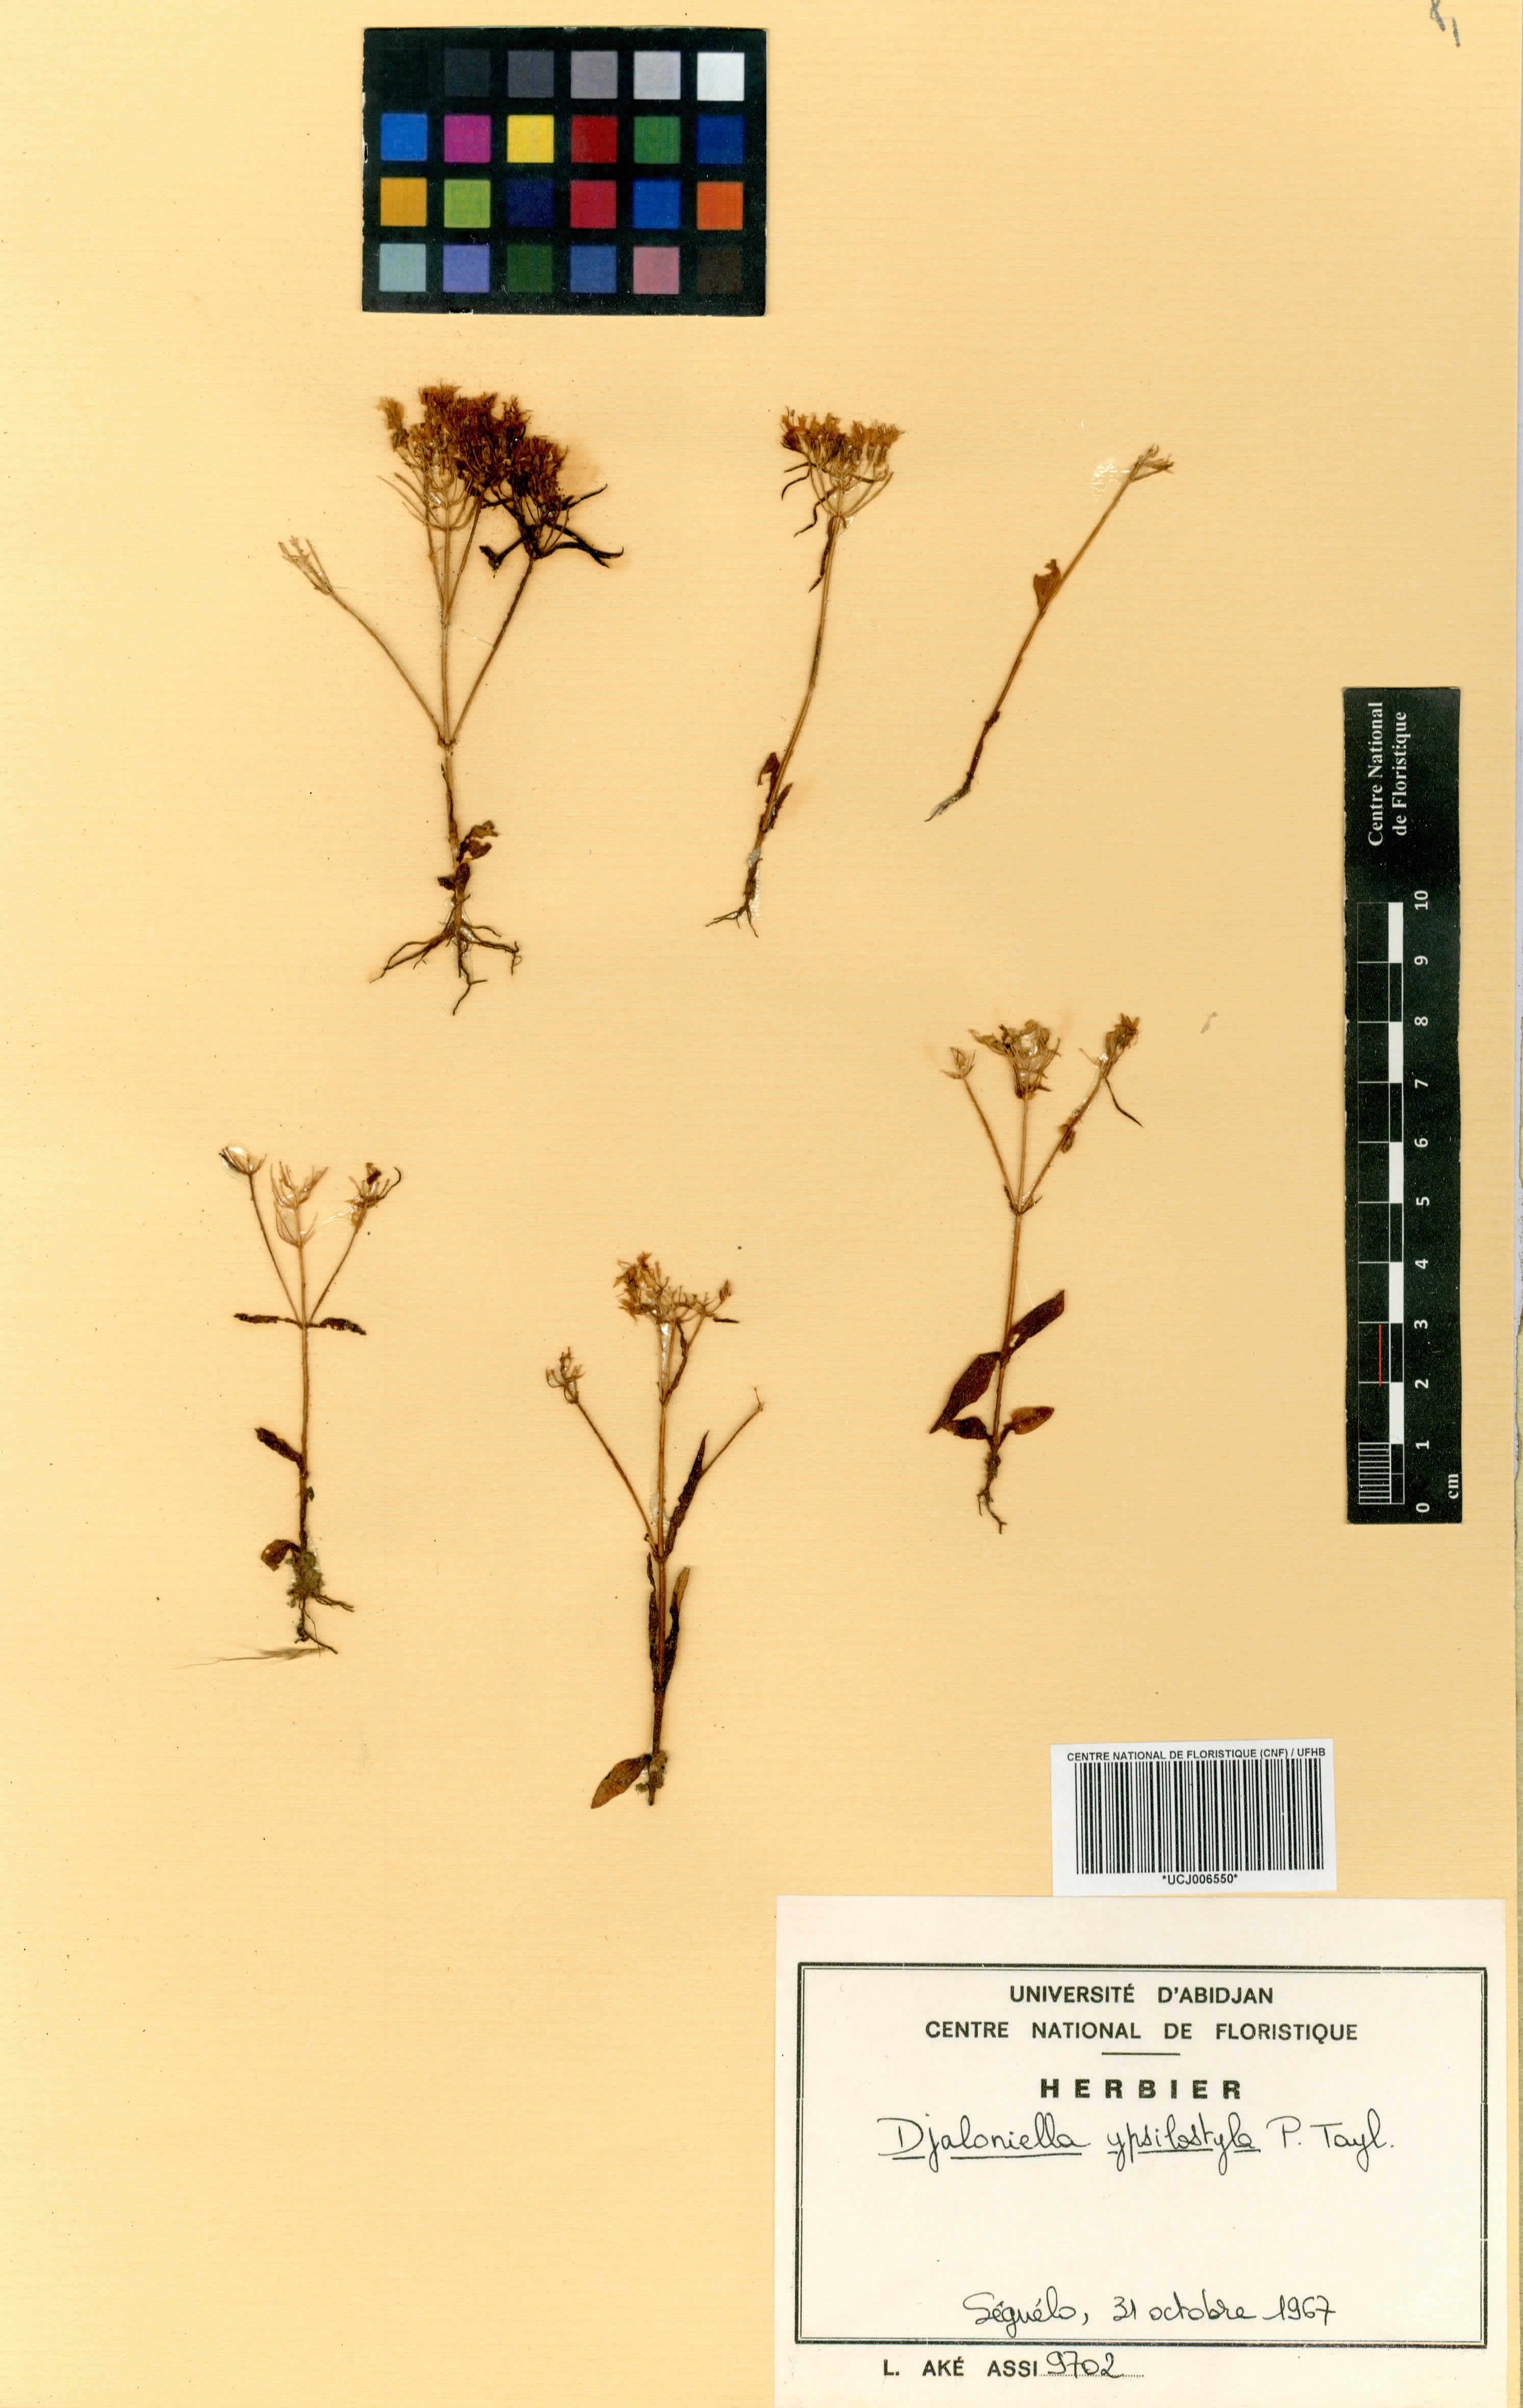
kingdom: Plantae
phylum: Tracheophyta
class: Magnoliopsida
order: Gentianales
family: Gentianaceae
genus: Djaloniella
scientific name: Djaloniella ypsilostyla
